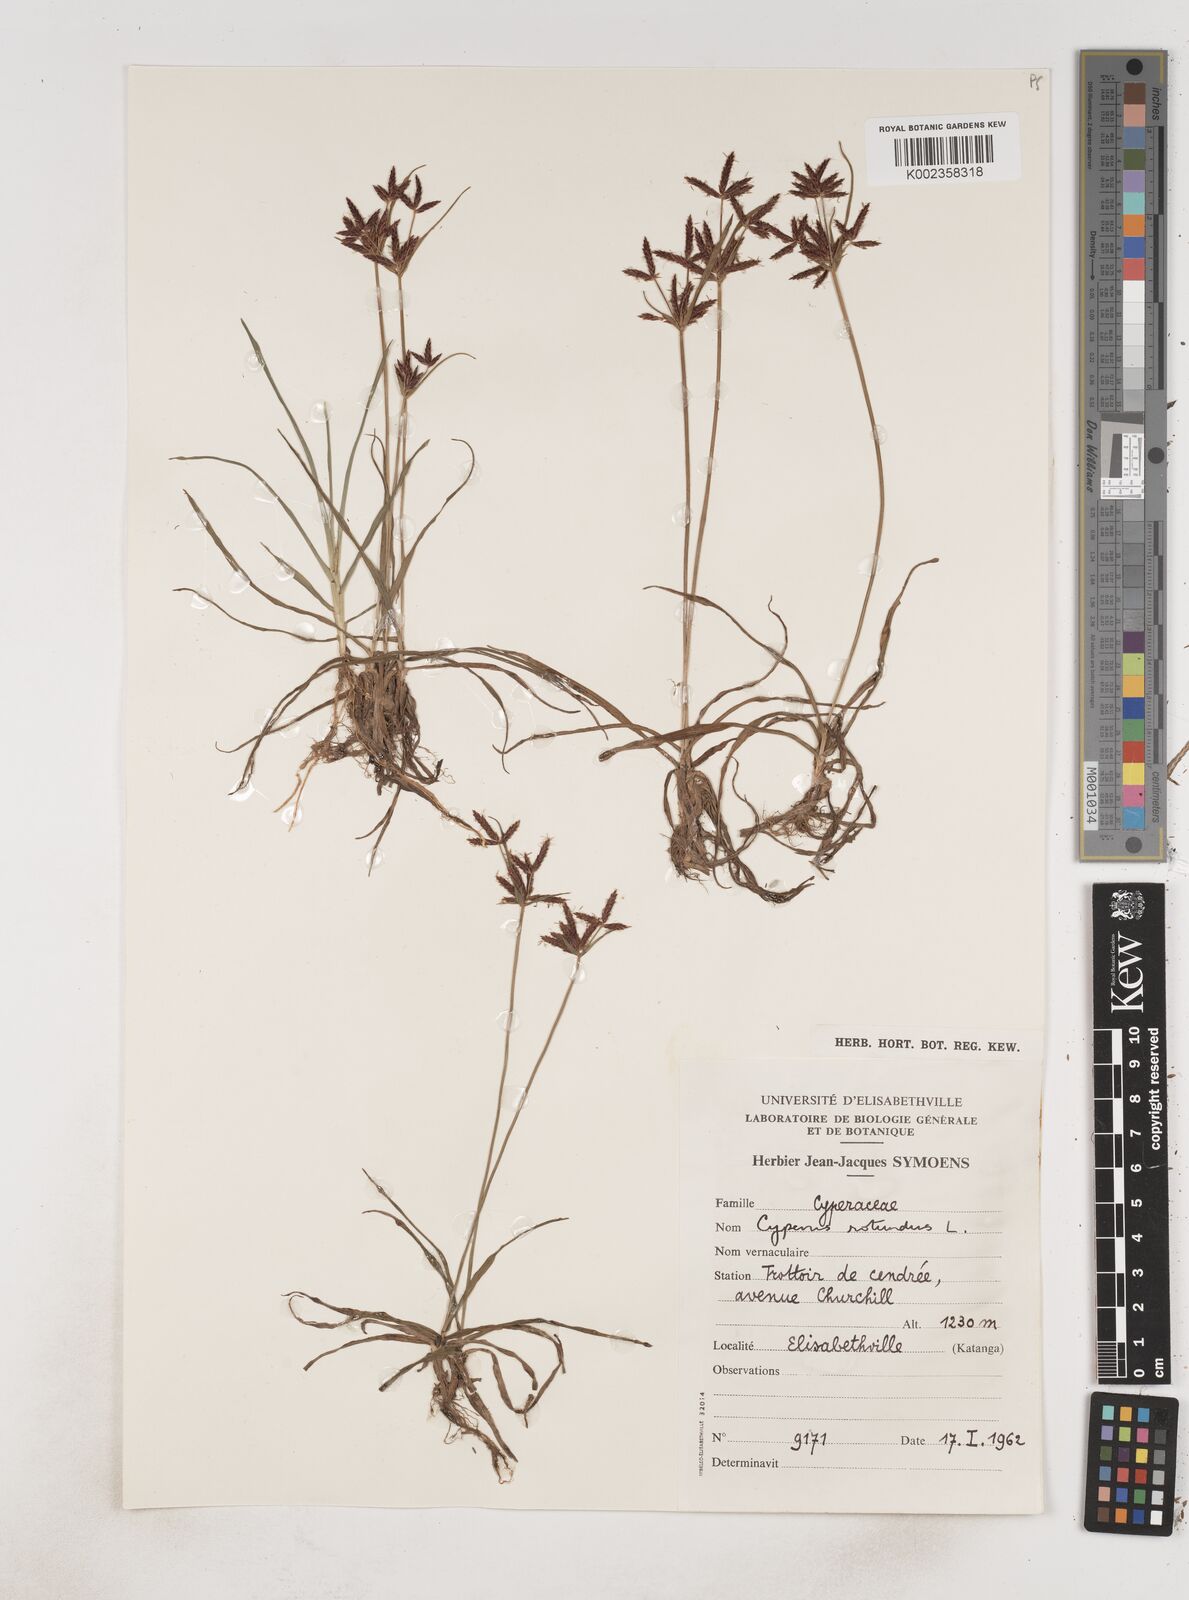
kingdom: Plantae
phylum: Tracheophyta
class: Liliopsida
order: Poales
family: Cyperaceae
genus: Cyperus
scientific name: Cyperus rotundus
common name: Nutgrass
